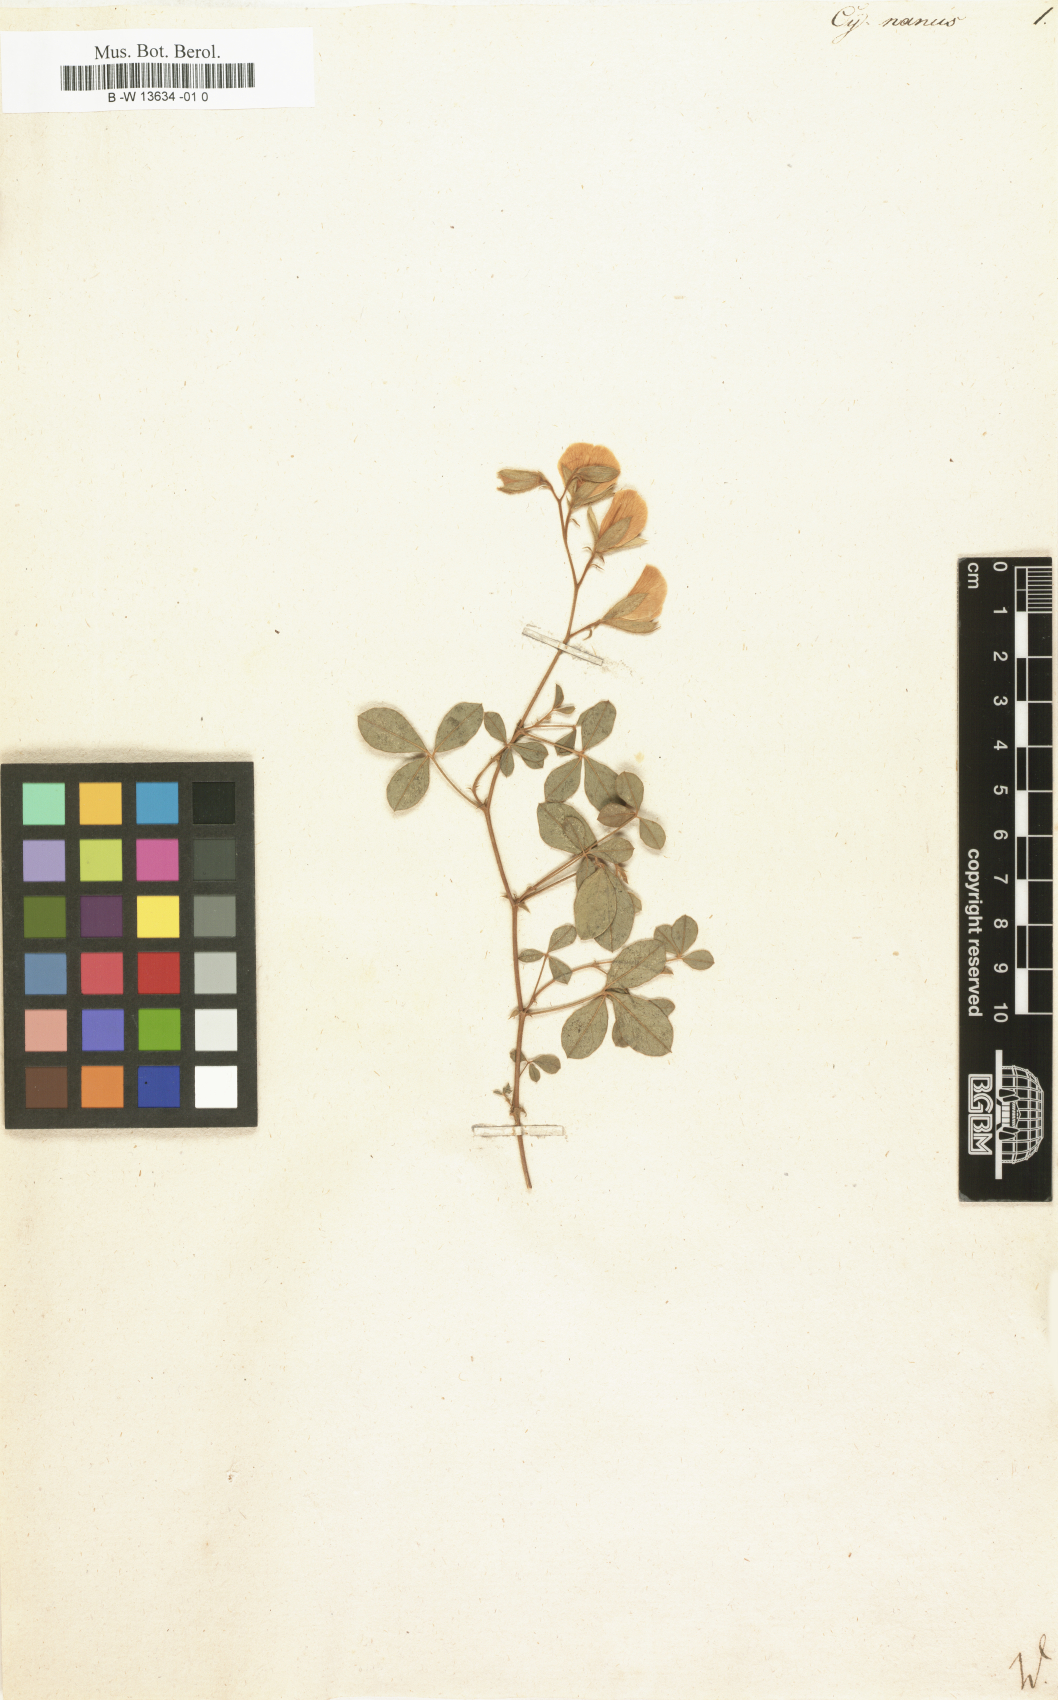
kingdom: Plantae
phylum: Tracheophyta
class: Magnoliopsida
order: Fabales
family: Fabaceae
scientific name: Fabaceae
